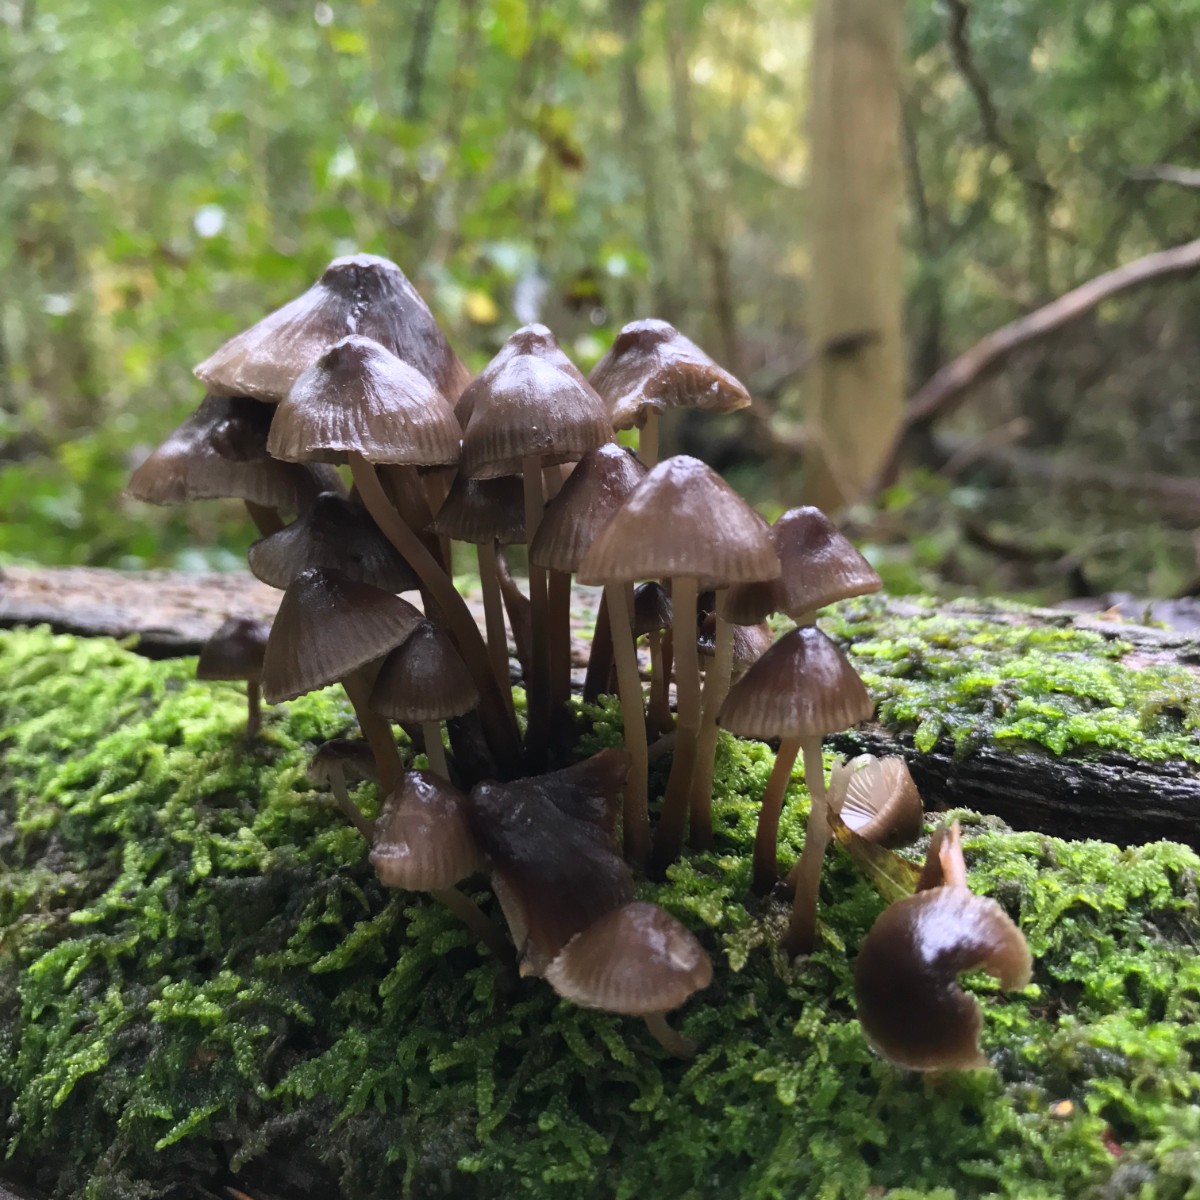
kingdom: Fungi
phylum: Basidiomycota
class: Agaricomycetes
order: Agaricales
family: Mycenaceae
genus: Mycena
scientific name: Mycena inclinata
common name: nikkende huesvamp
